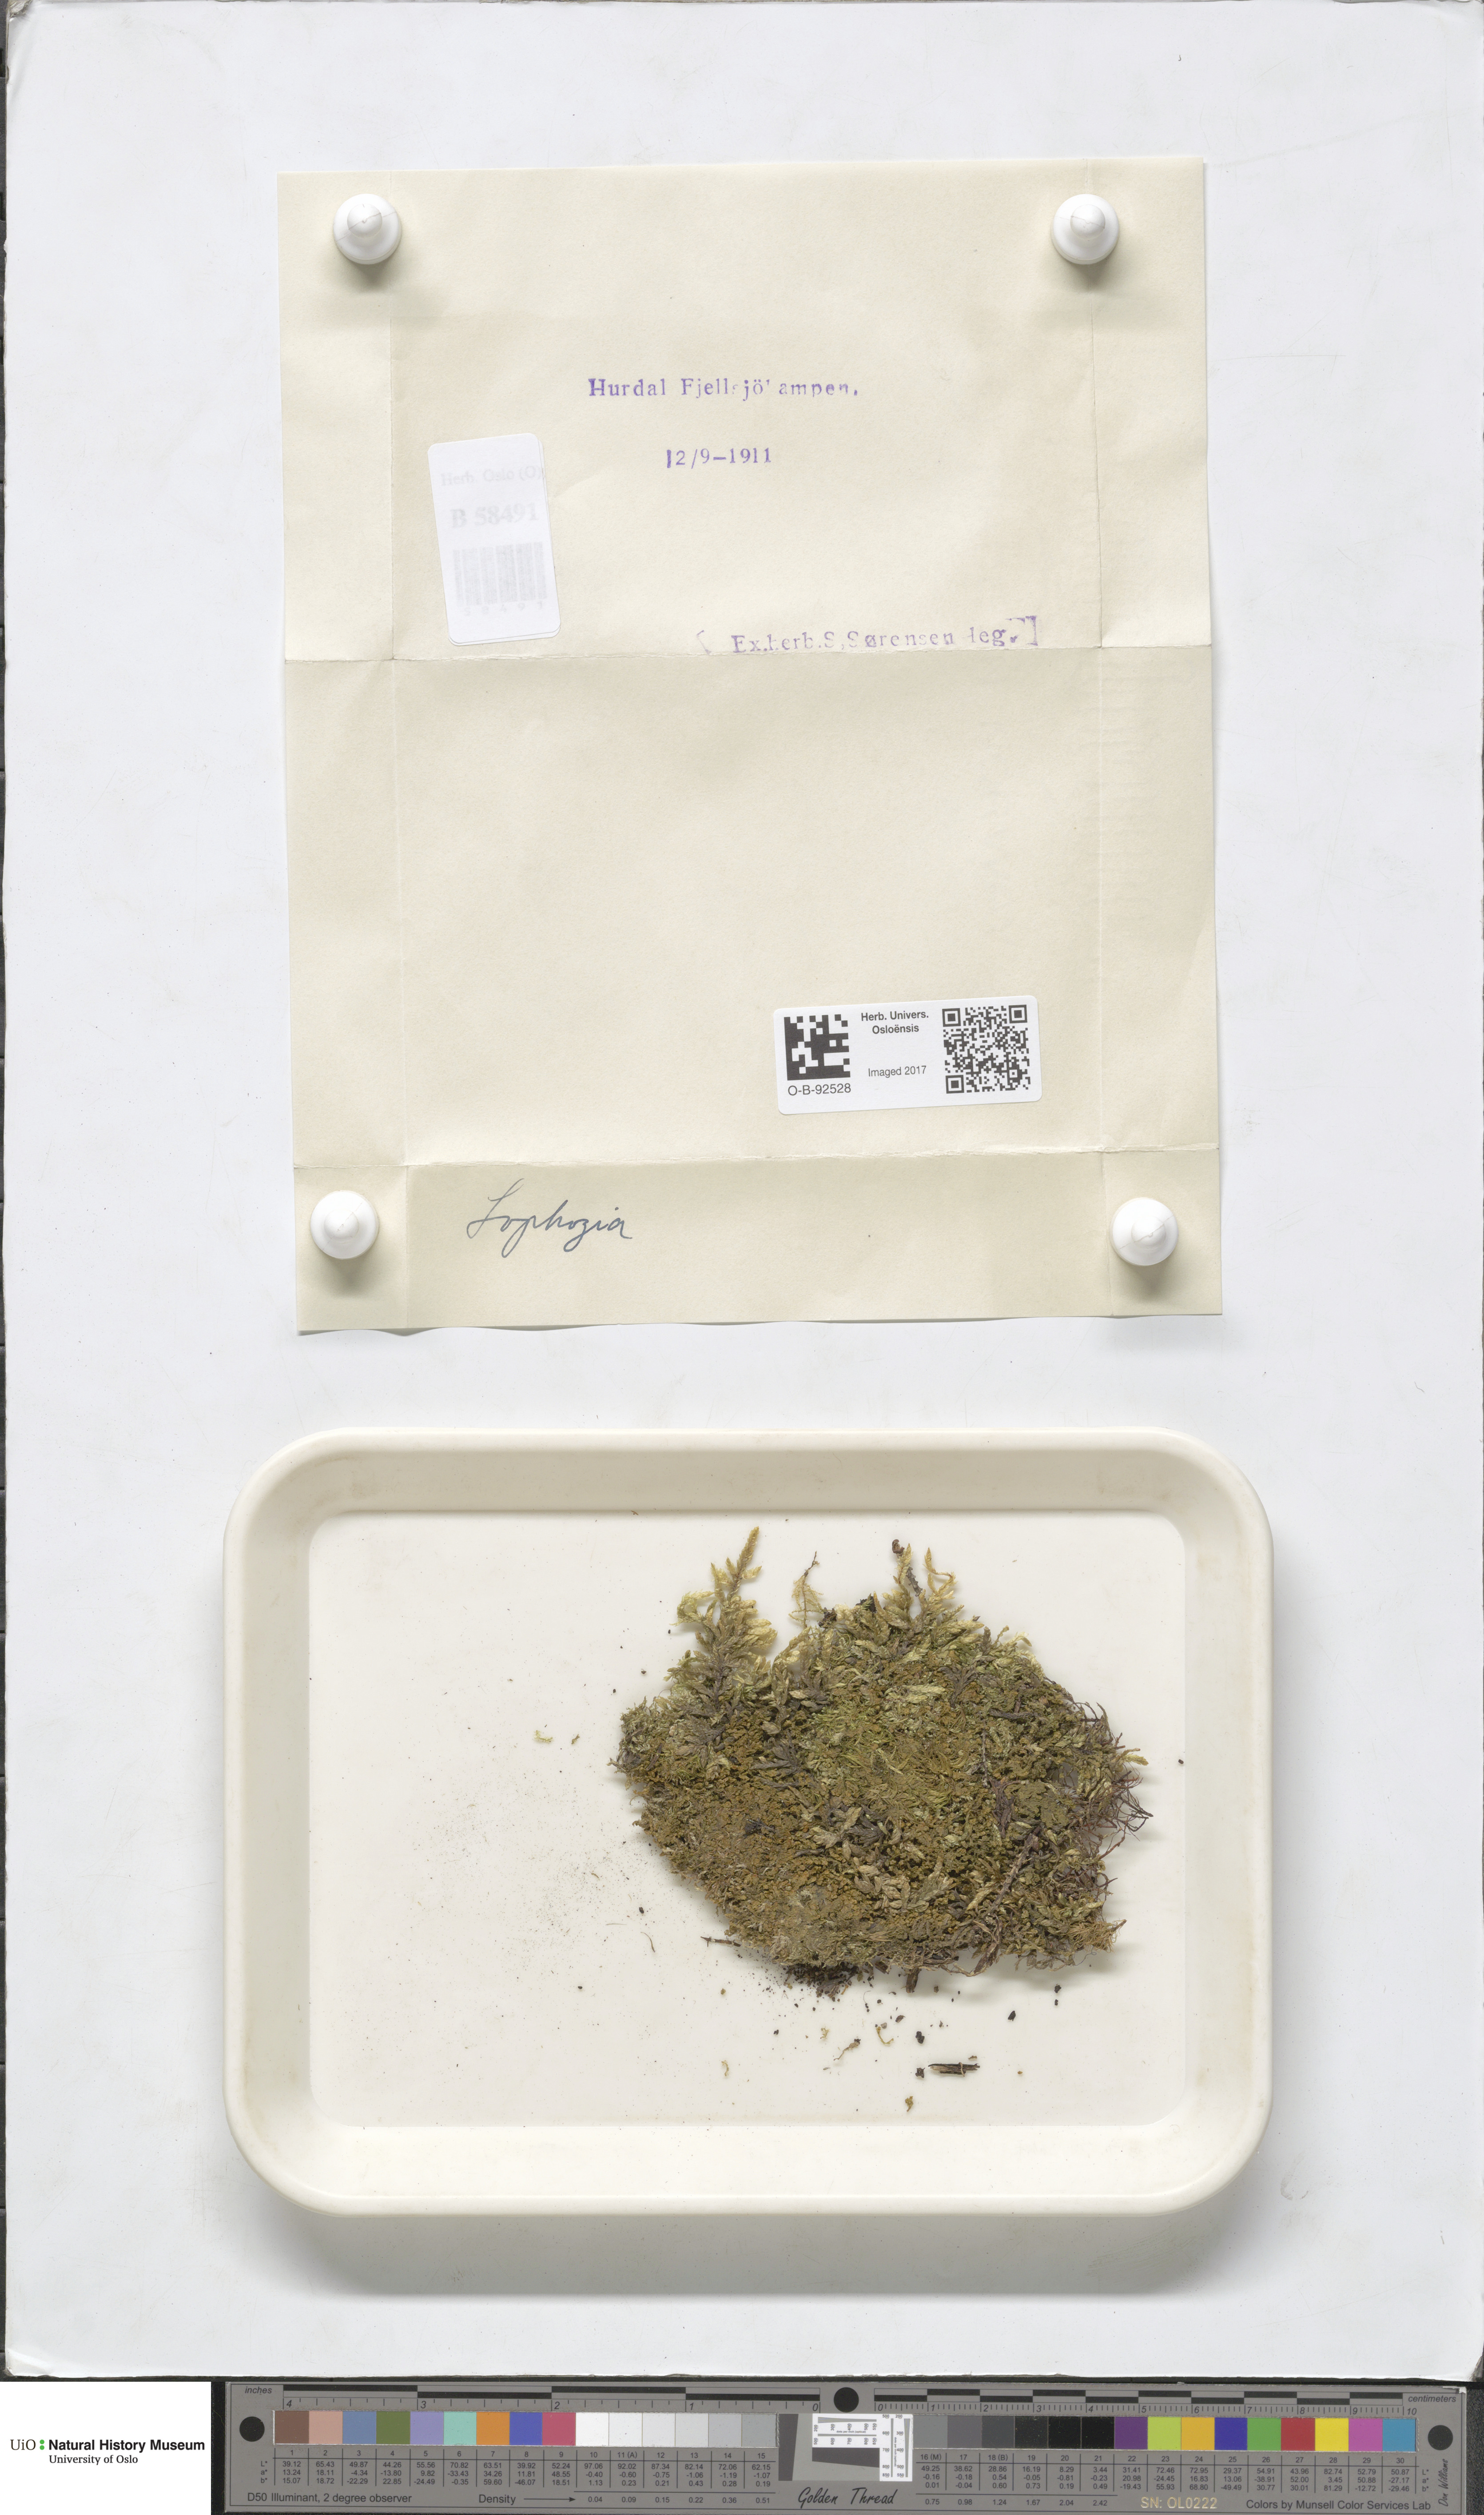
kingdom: Plantae
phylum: Marchantiophyta
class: Jungermanniopsida
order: Jungermanniales
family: Lophoziaceae
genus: Lophozia
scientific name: Lophozia
